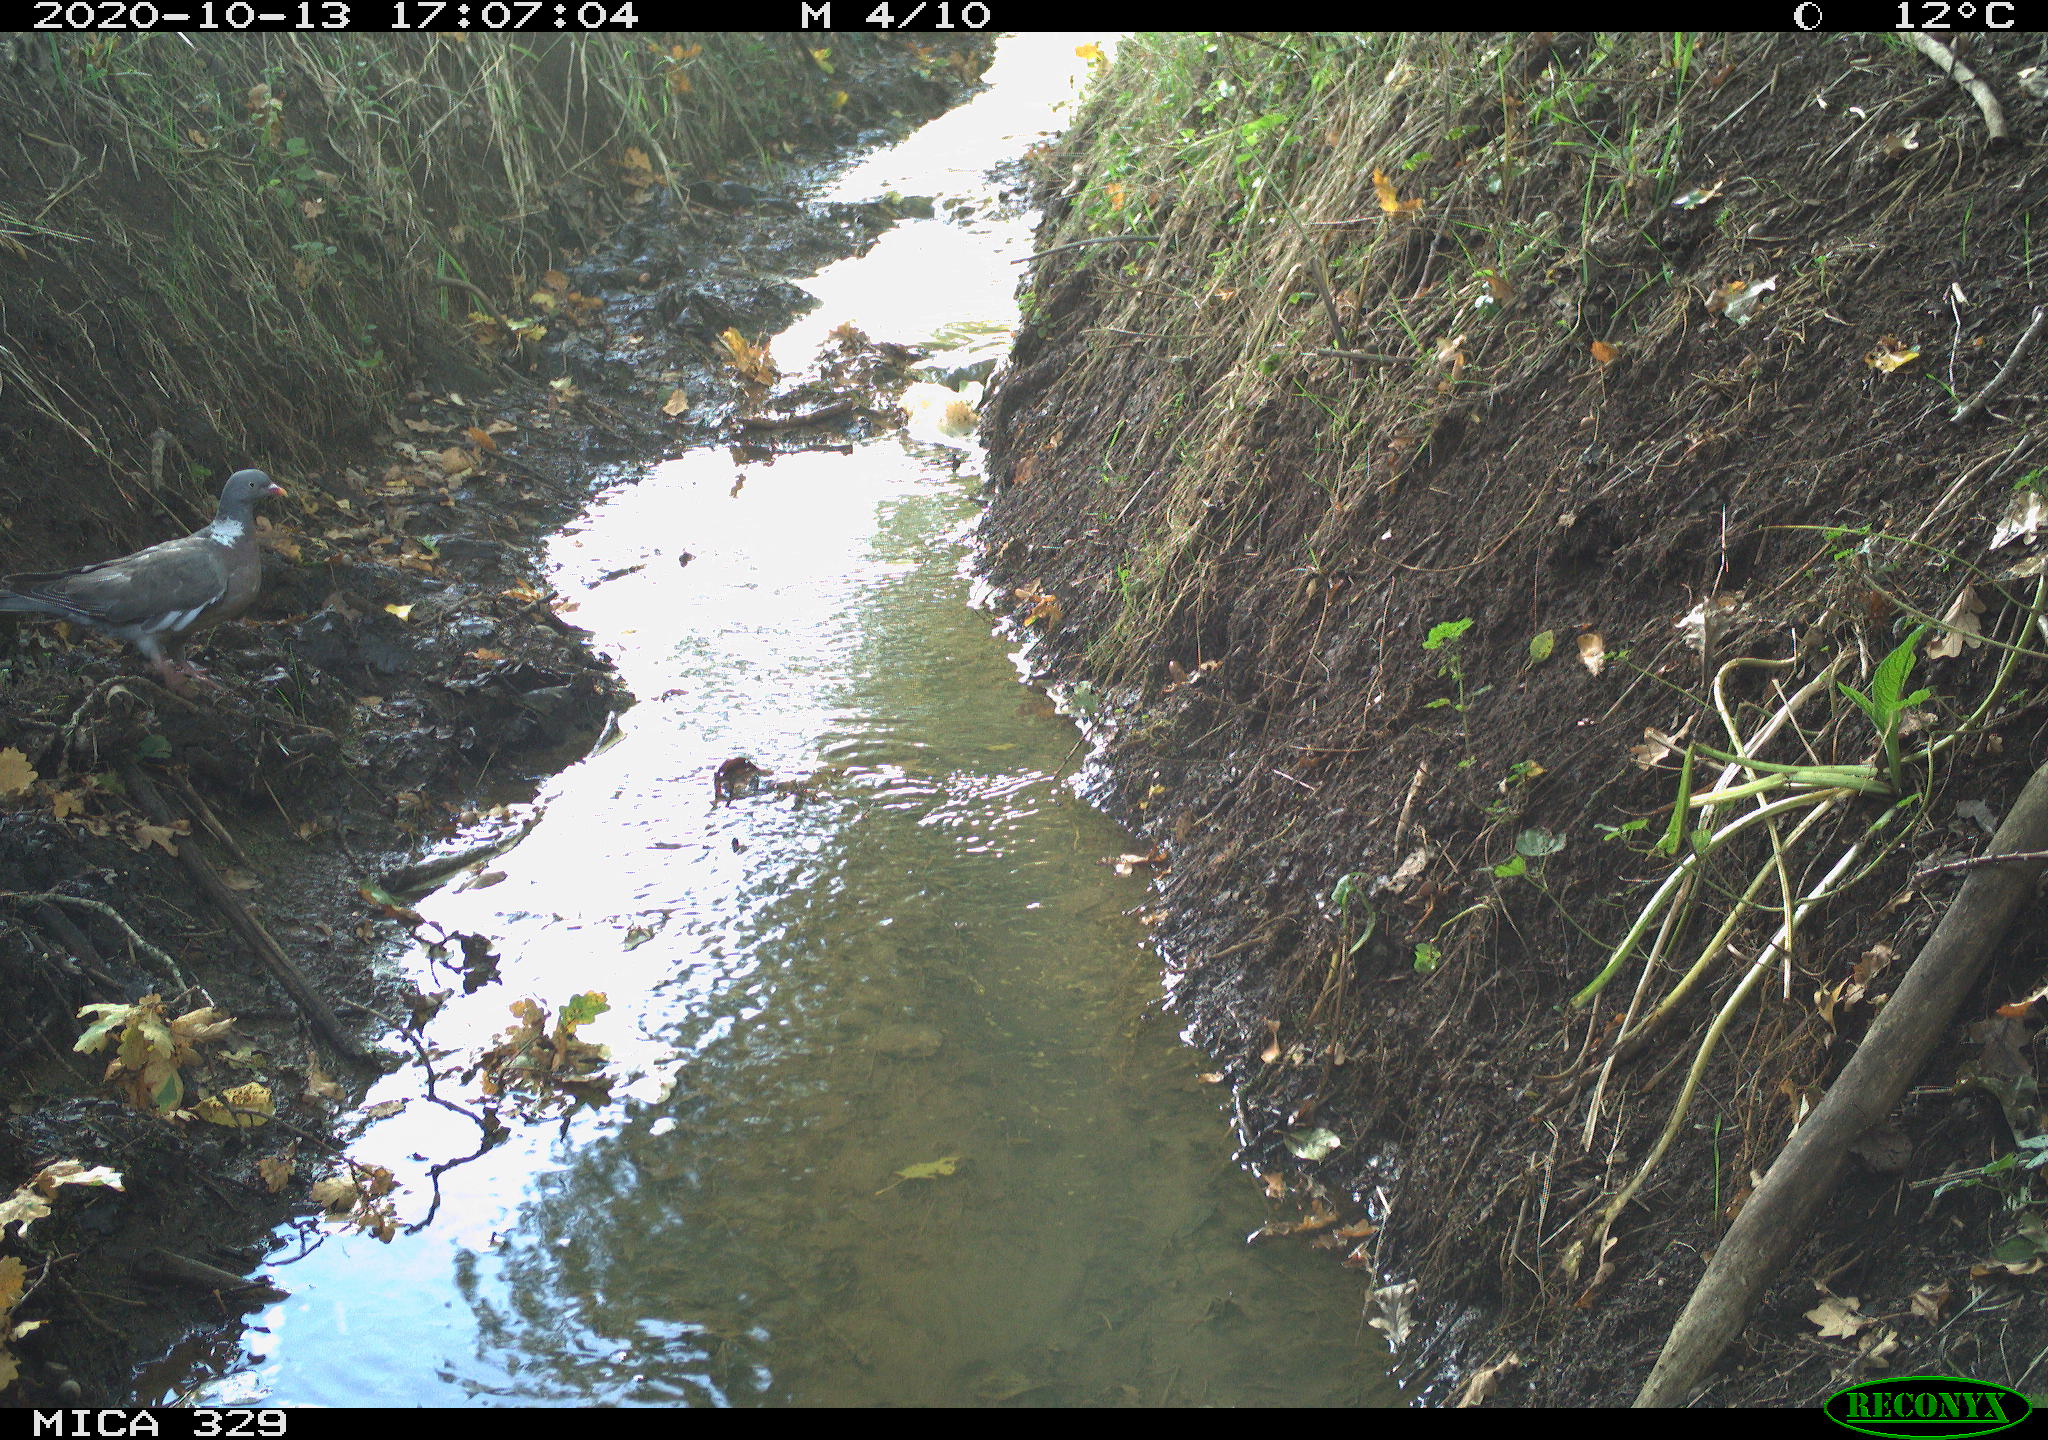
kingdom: Animalia
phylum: Chordata
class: Aves
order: Columbiformes
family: Columbidae
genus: Columba
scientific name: Columba palumbus
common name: Common wood pigeon
